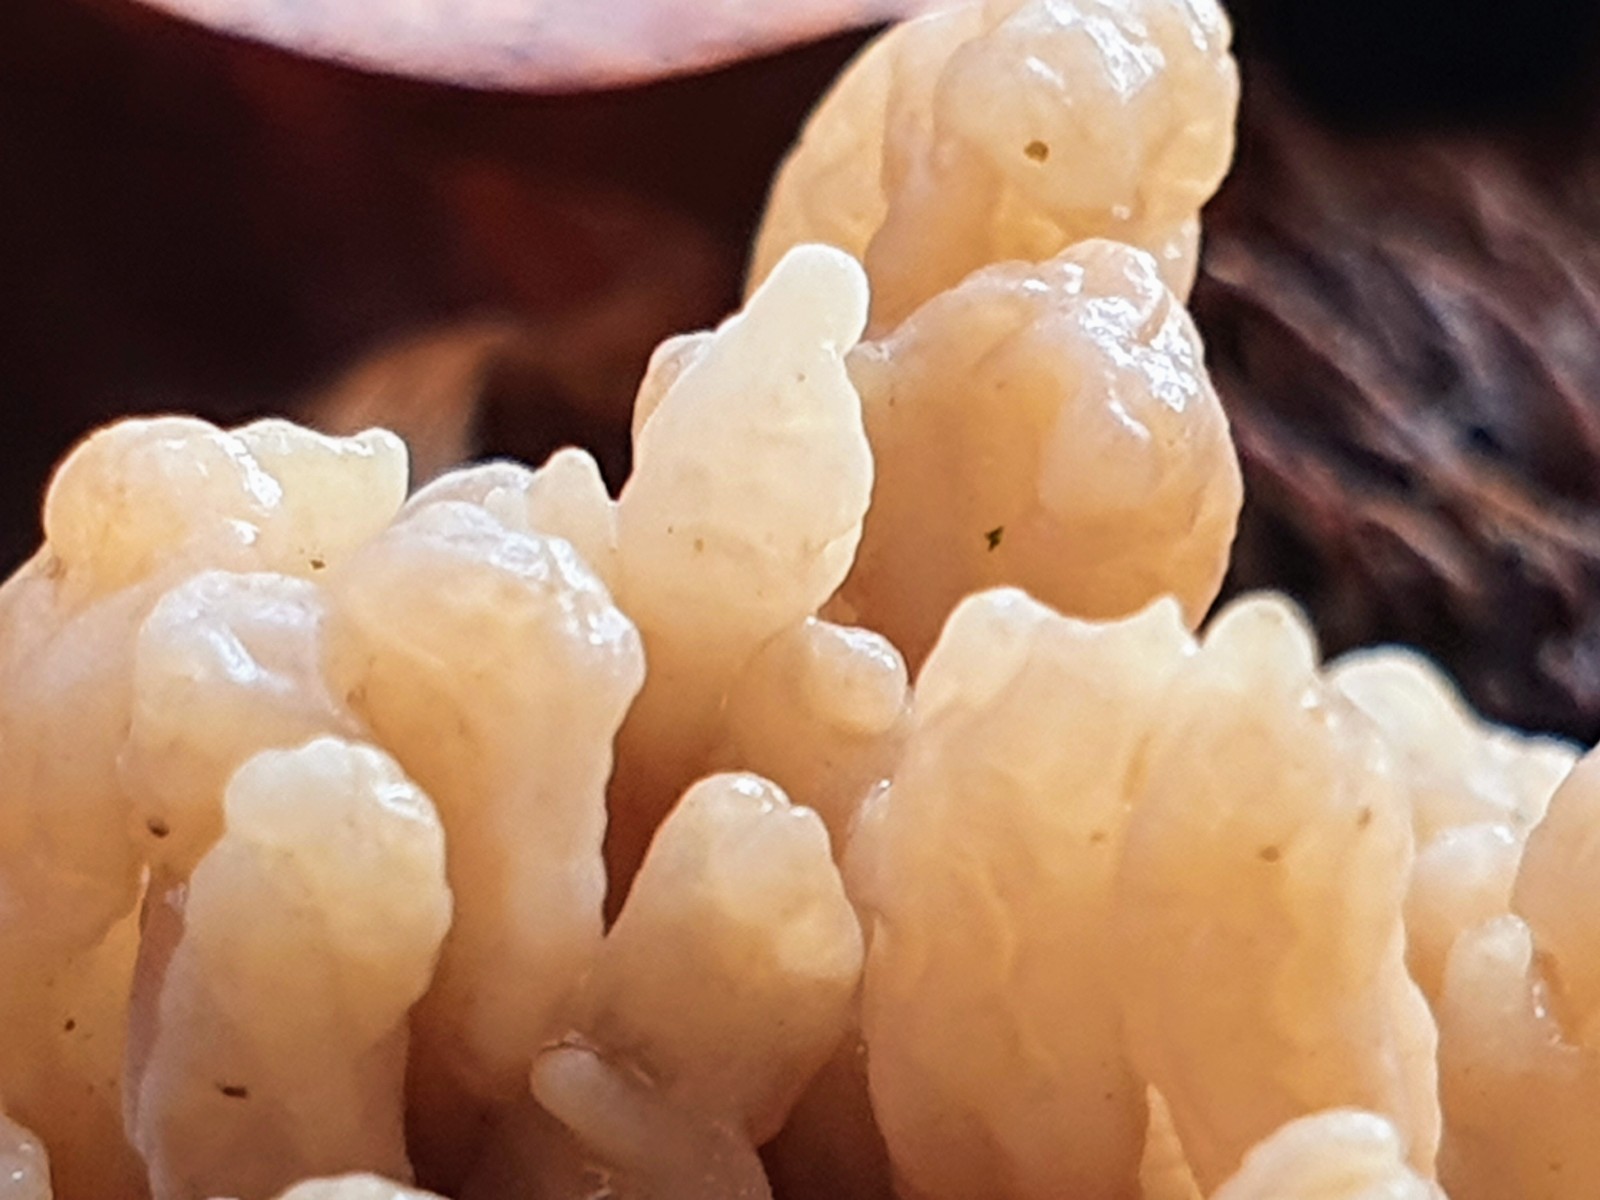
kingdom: Fungi
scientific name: Fungi
